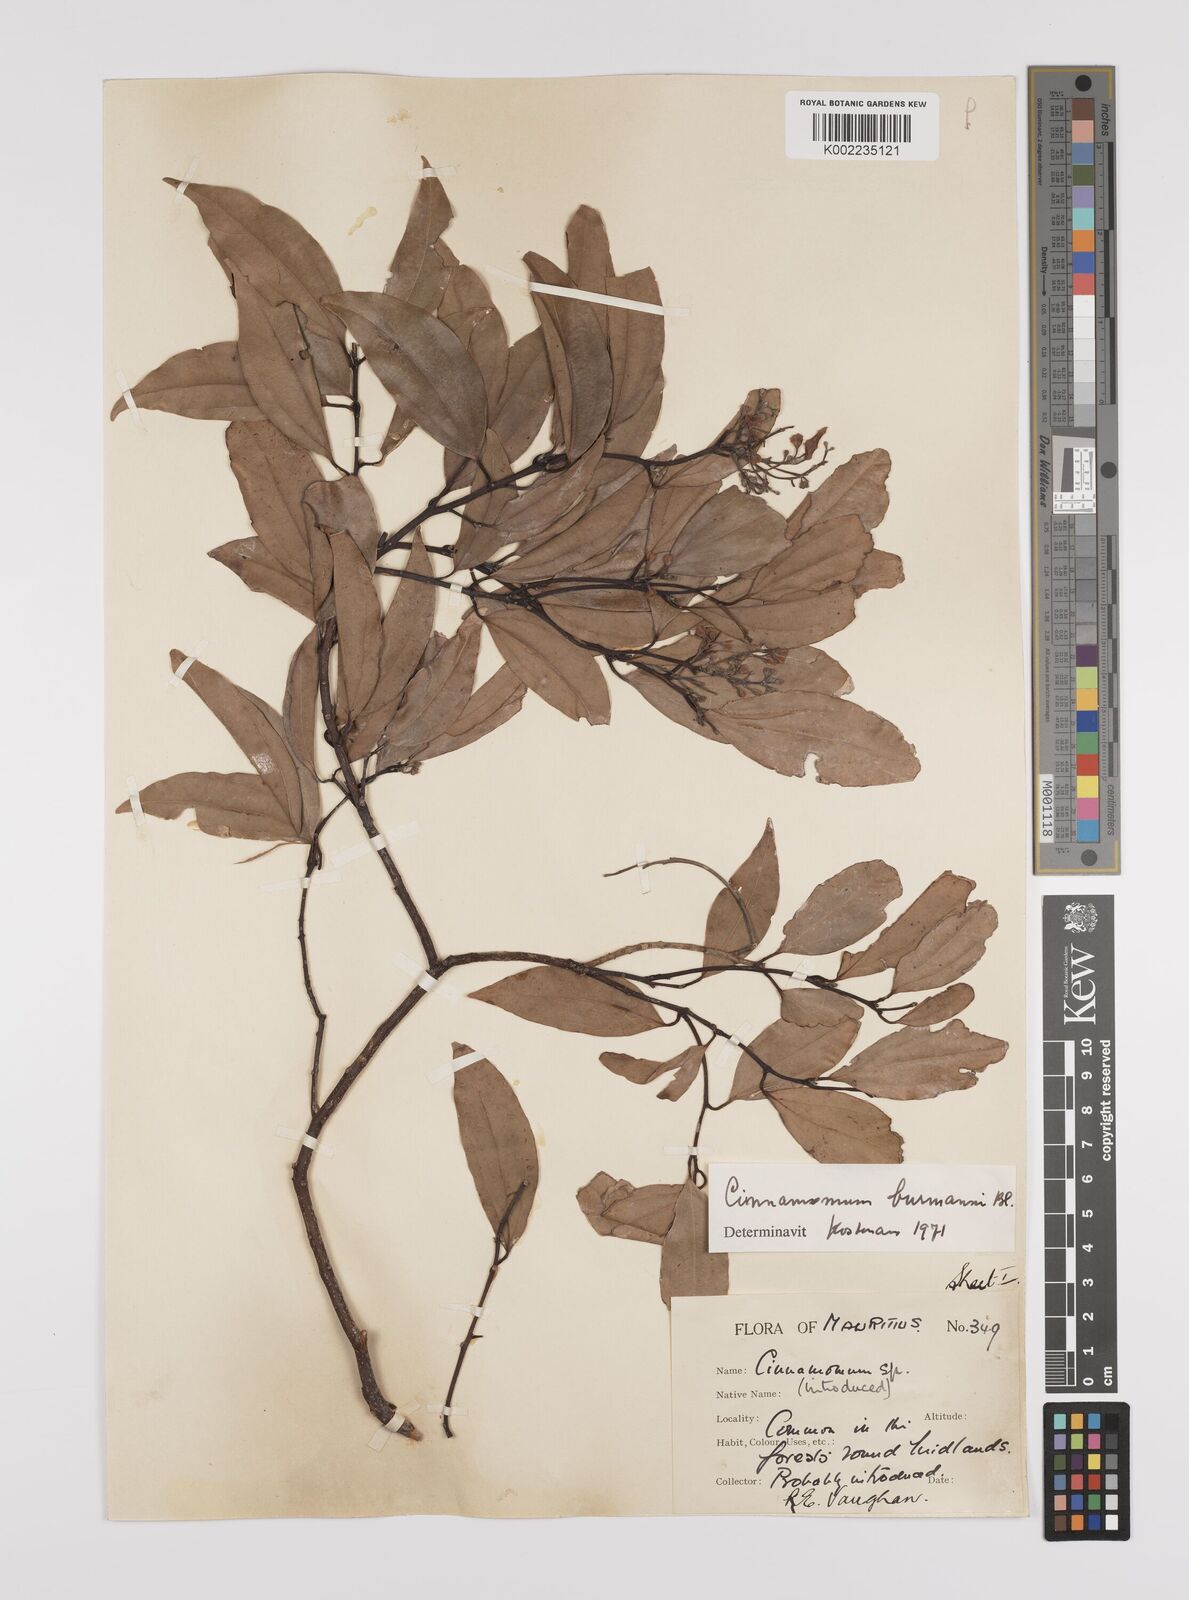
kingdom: Plantae
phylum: Tracheophyta
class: Magnoliopsida
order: Laurales
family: Lauraceae
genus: Cinnamomum
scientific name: Cinnamomum burmanni
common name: Padang cassia
